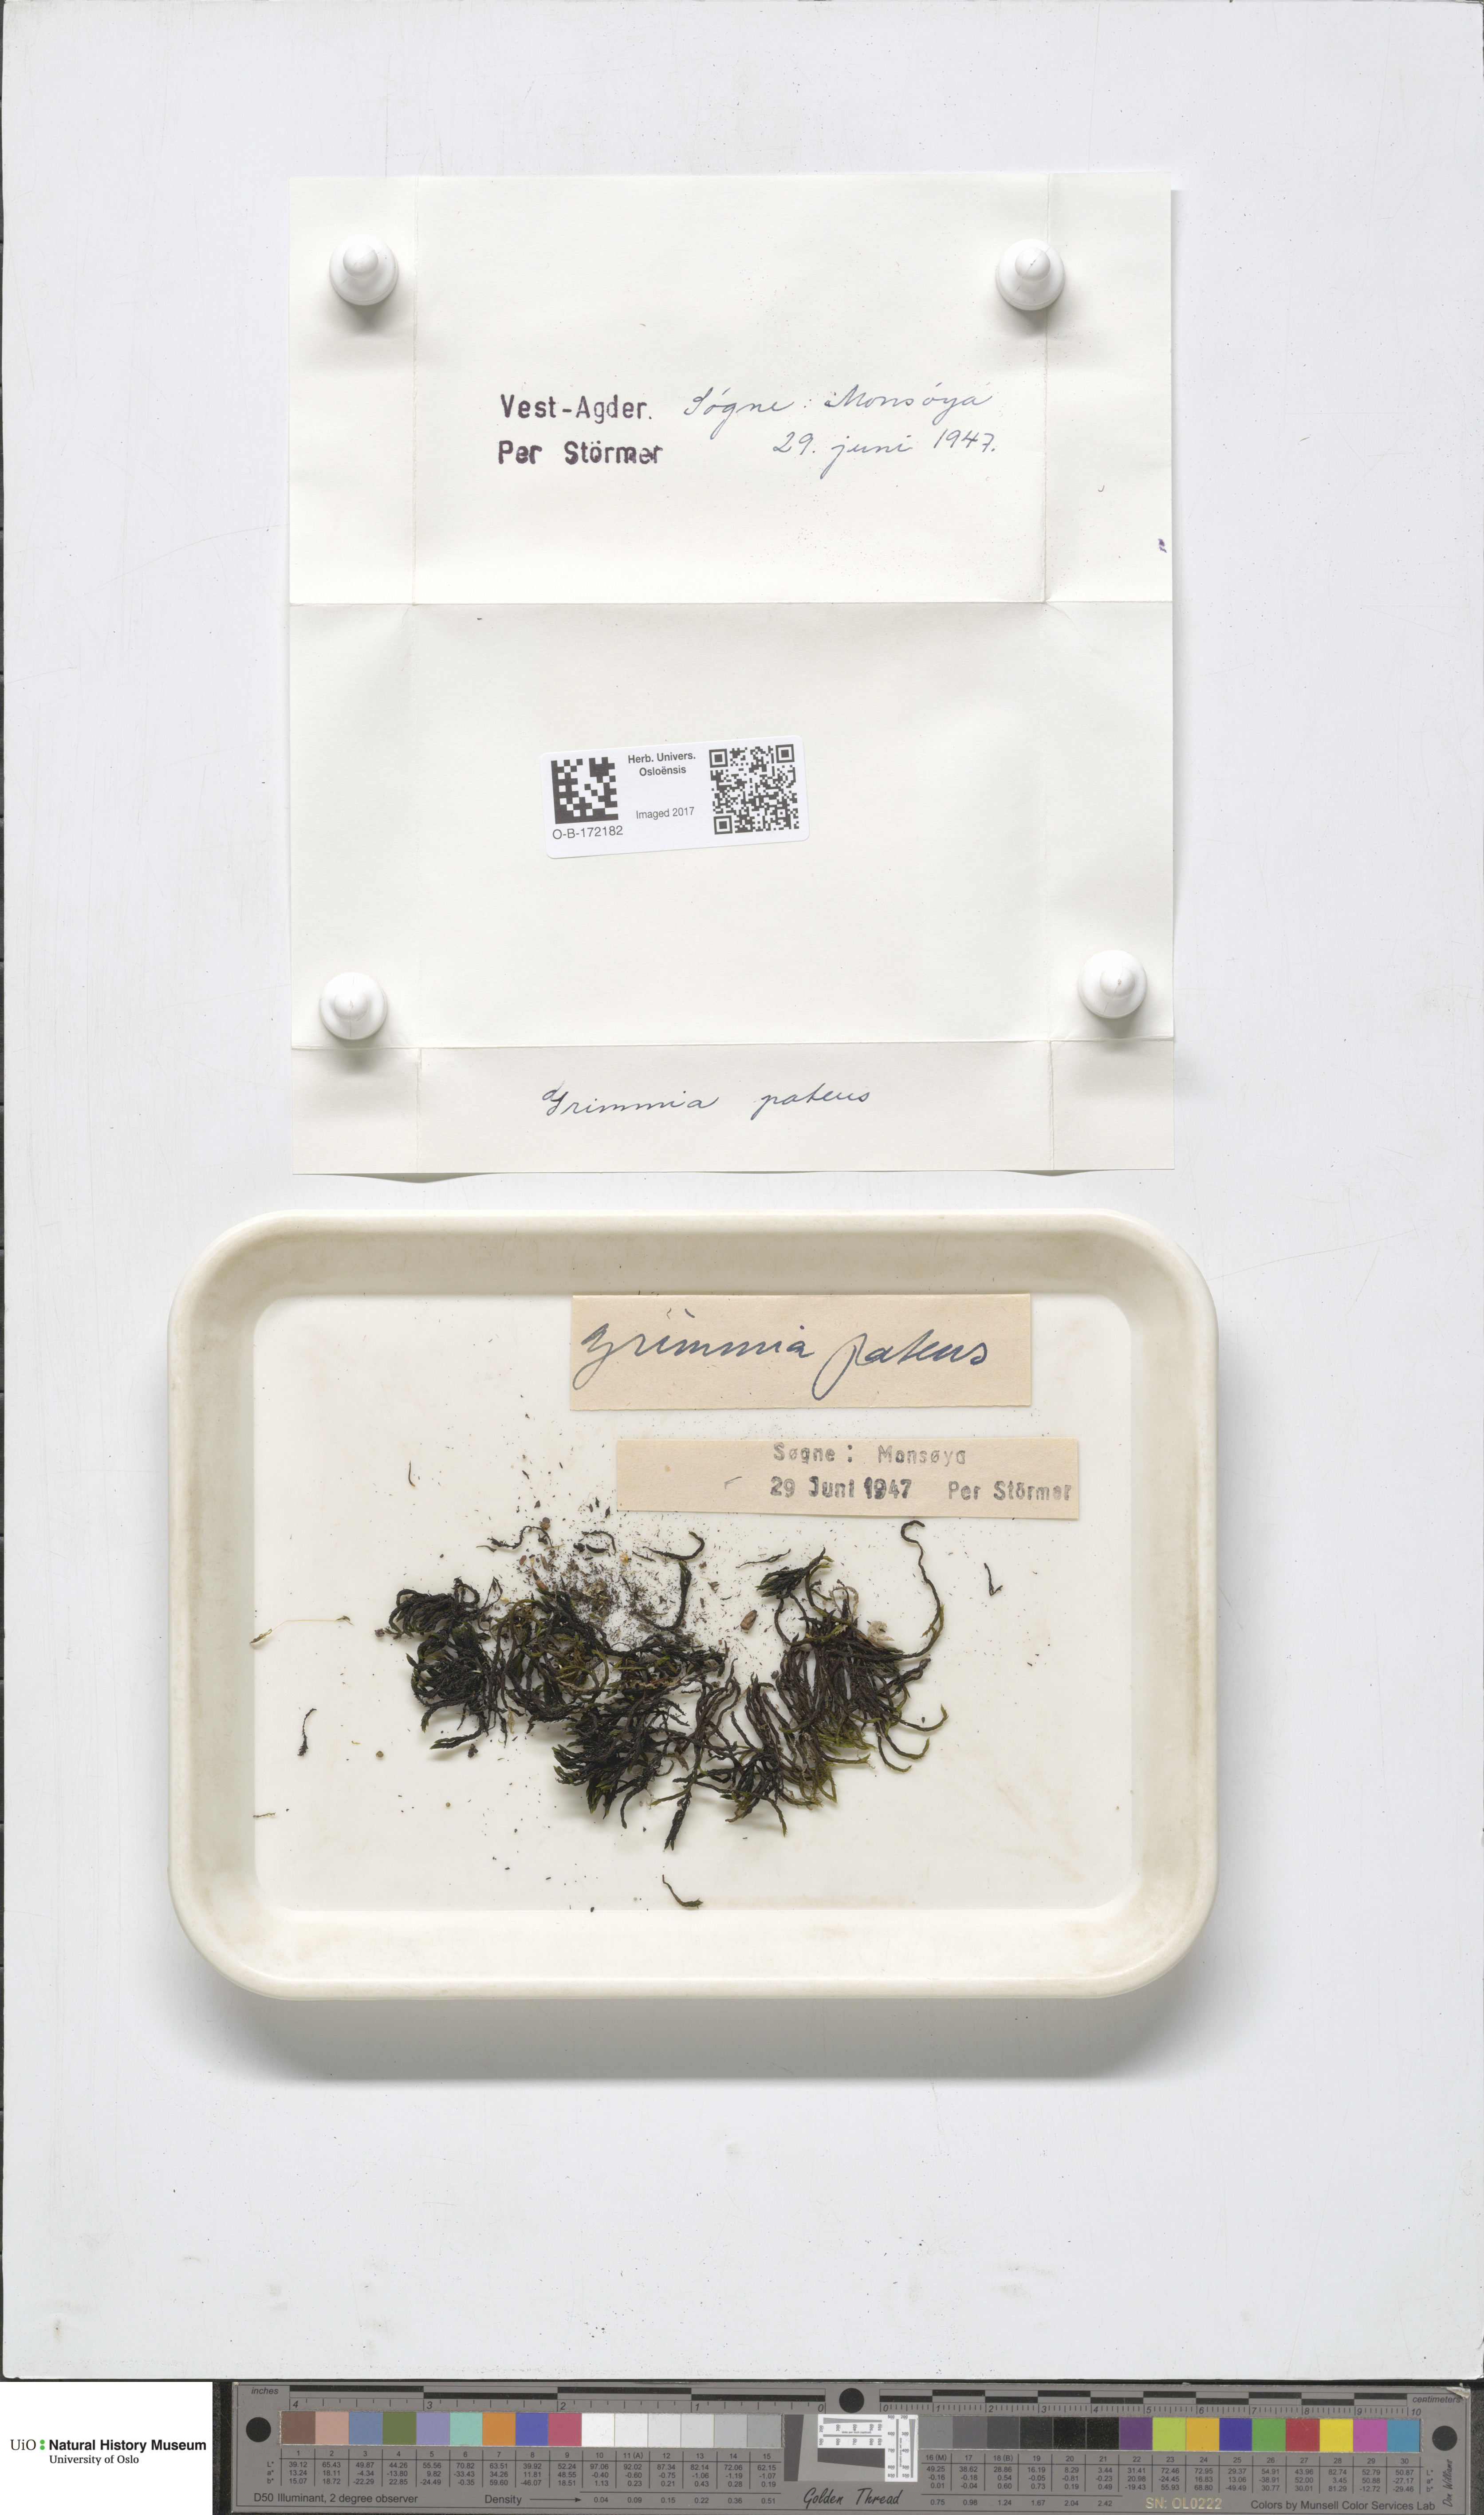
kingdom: Plantae
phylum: Bryophyta
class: Bryopsida
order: Grimmiales
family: Grimmiaceae
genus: Grimmia
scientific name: Grimmia ramondii
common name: Spreading-leaved grimmia
